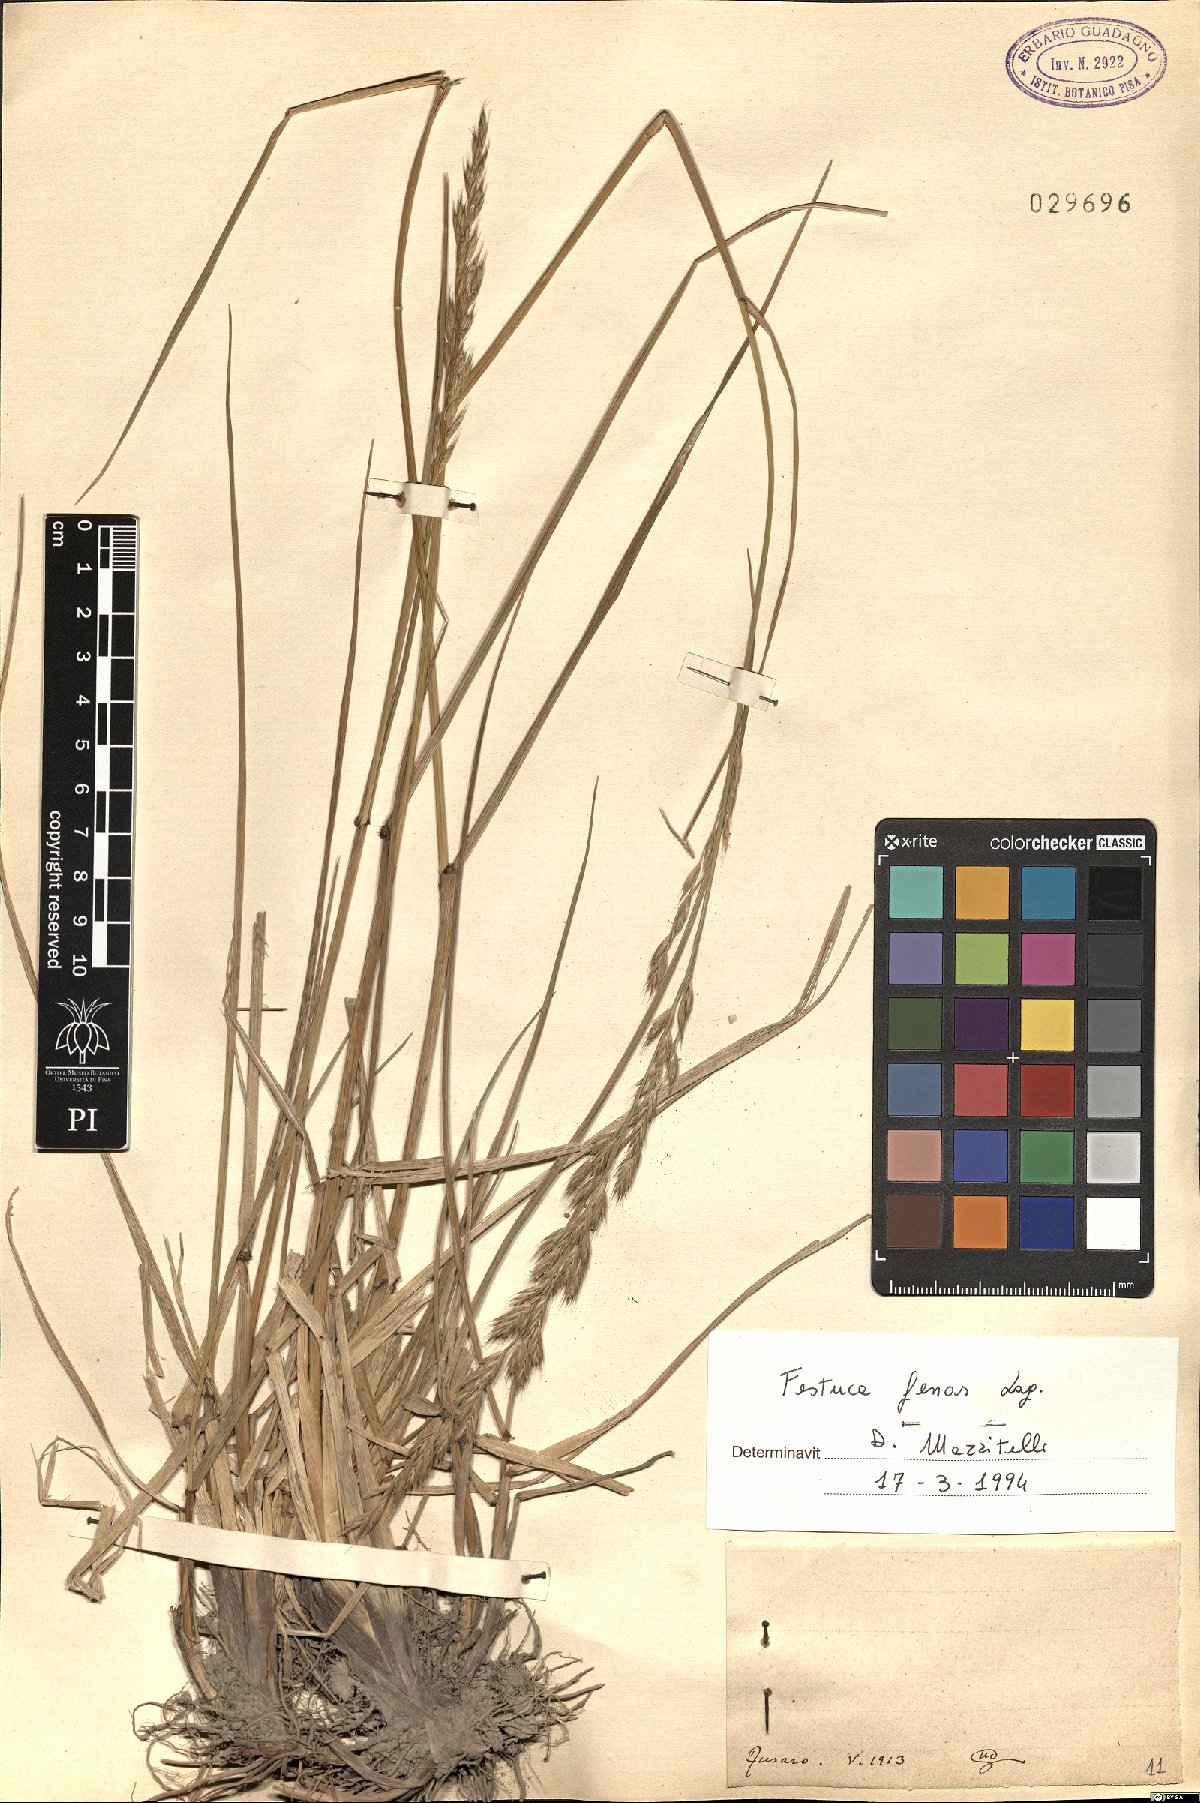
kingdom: Plantae
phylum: Tracheophyta
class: Liliopsida
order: Poales
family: Poaceae
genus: Lolium
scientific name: Lolium interruptum
